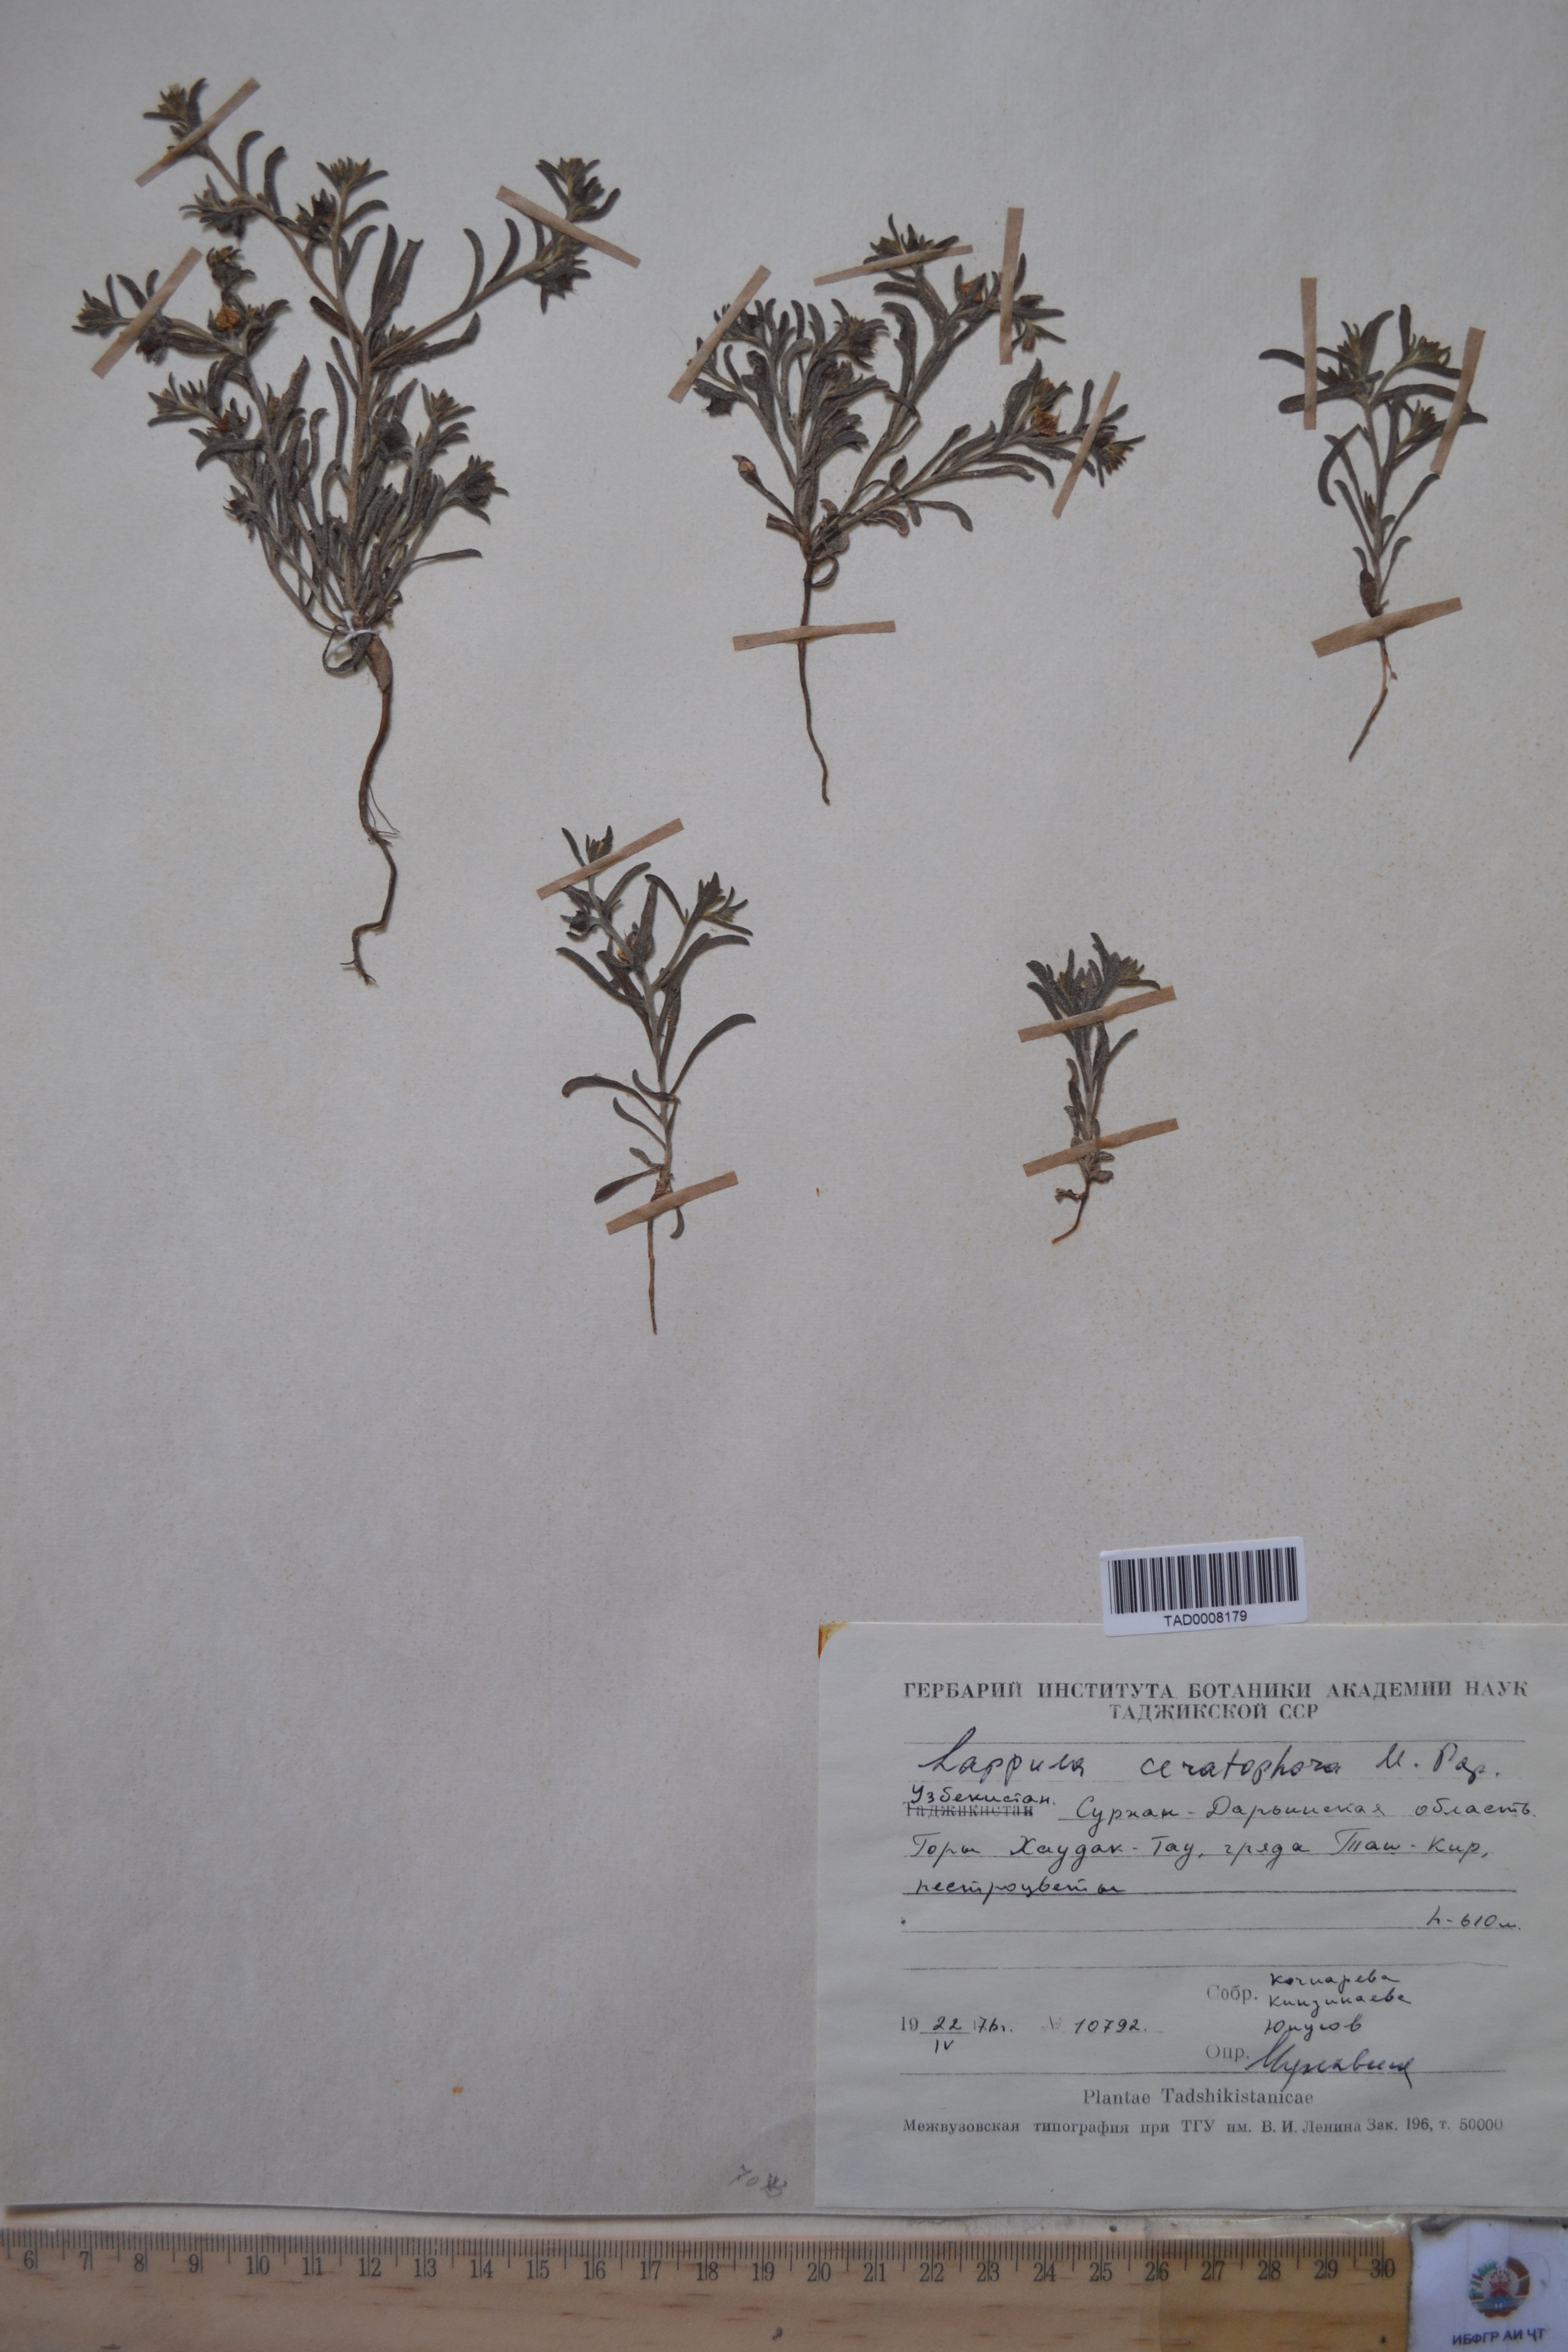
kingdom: Plantae
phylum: Tracheophyta
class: Magnoliopsida
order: Boraginales
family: Boraginaceae
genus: Lappula
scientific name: Lappula spinocarpos
